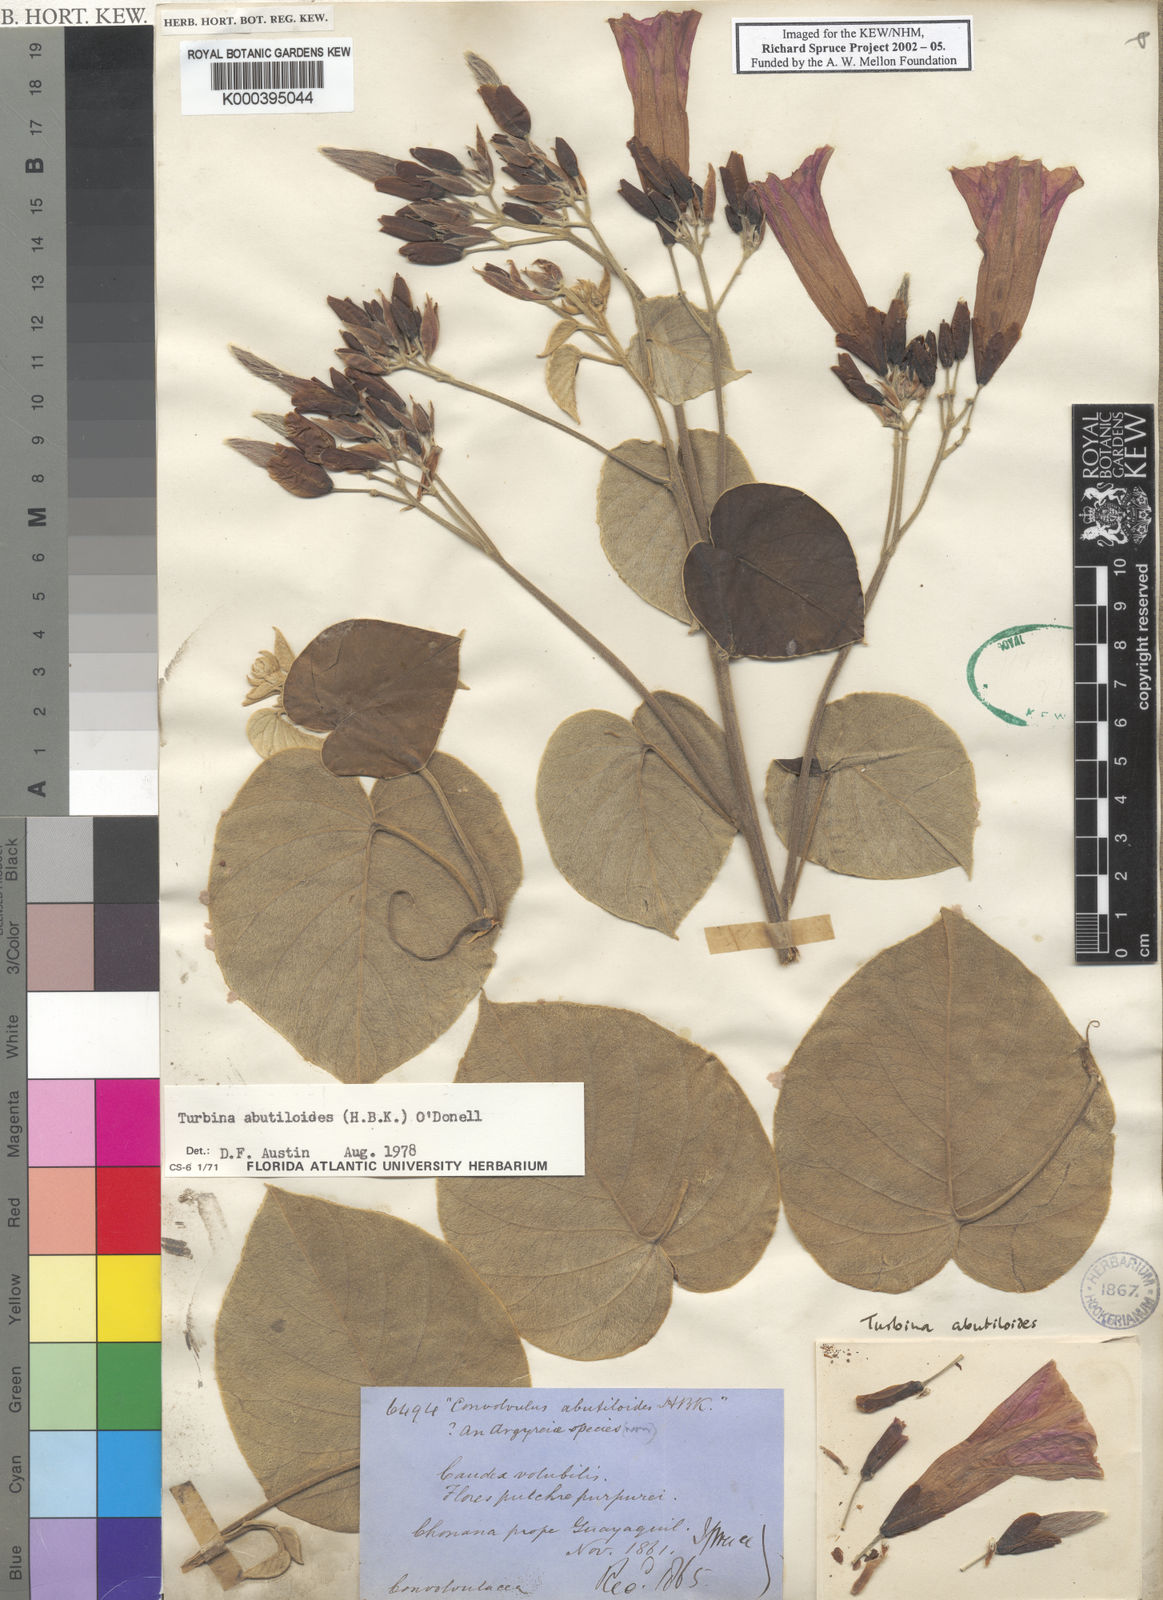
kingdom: Plantae
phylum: Tracheophyta
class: Magnoliopsida
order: Solanales
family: Convolvulaceae
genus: Ipomoea
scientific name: Ipomoea abutiloides
